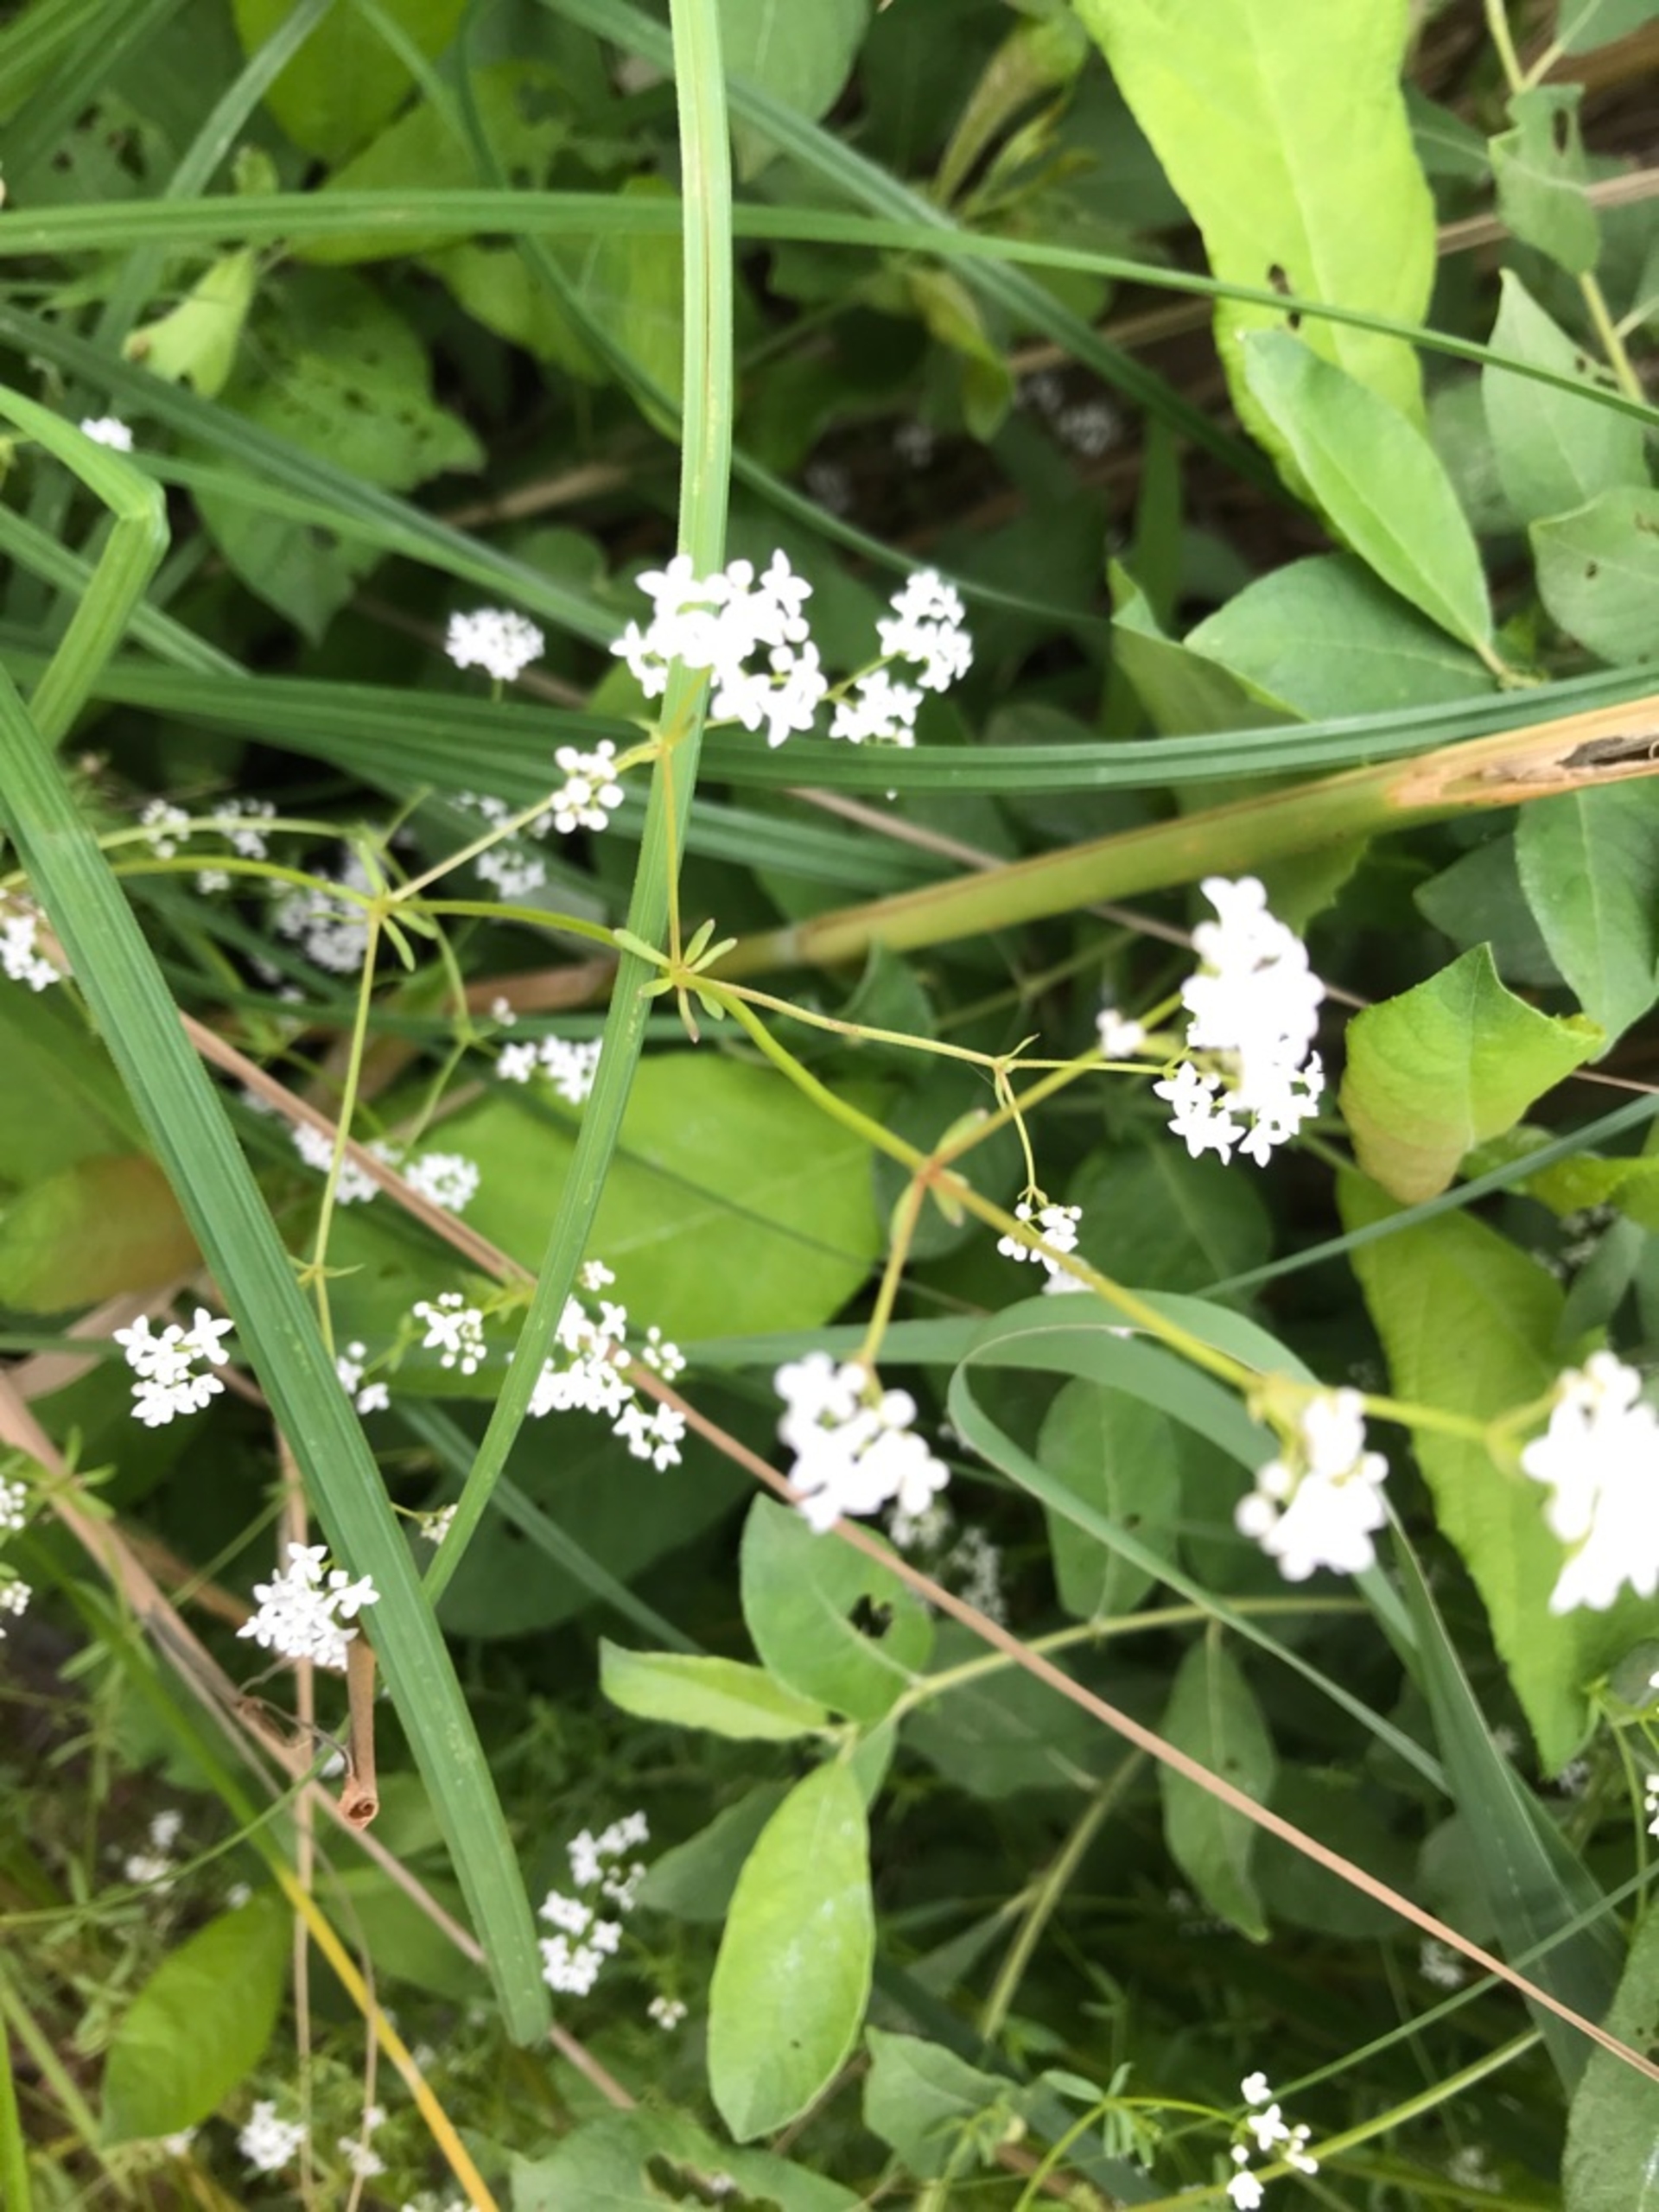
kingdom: Plantae
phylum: Tracheophyta
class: Magnoliopsida
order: Gentianales
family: Rubiaceae
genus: Galium
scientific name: Galium palustre
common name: Kær-snerre
